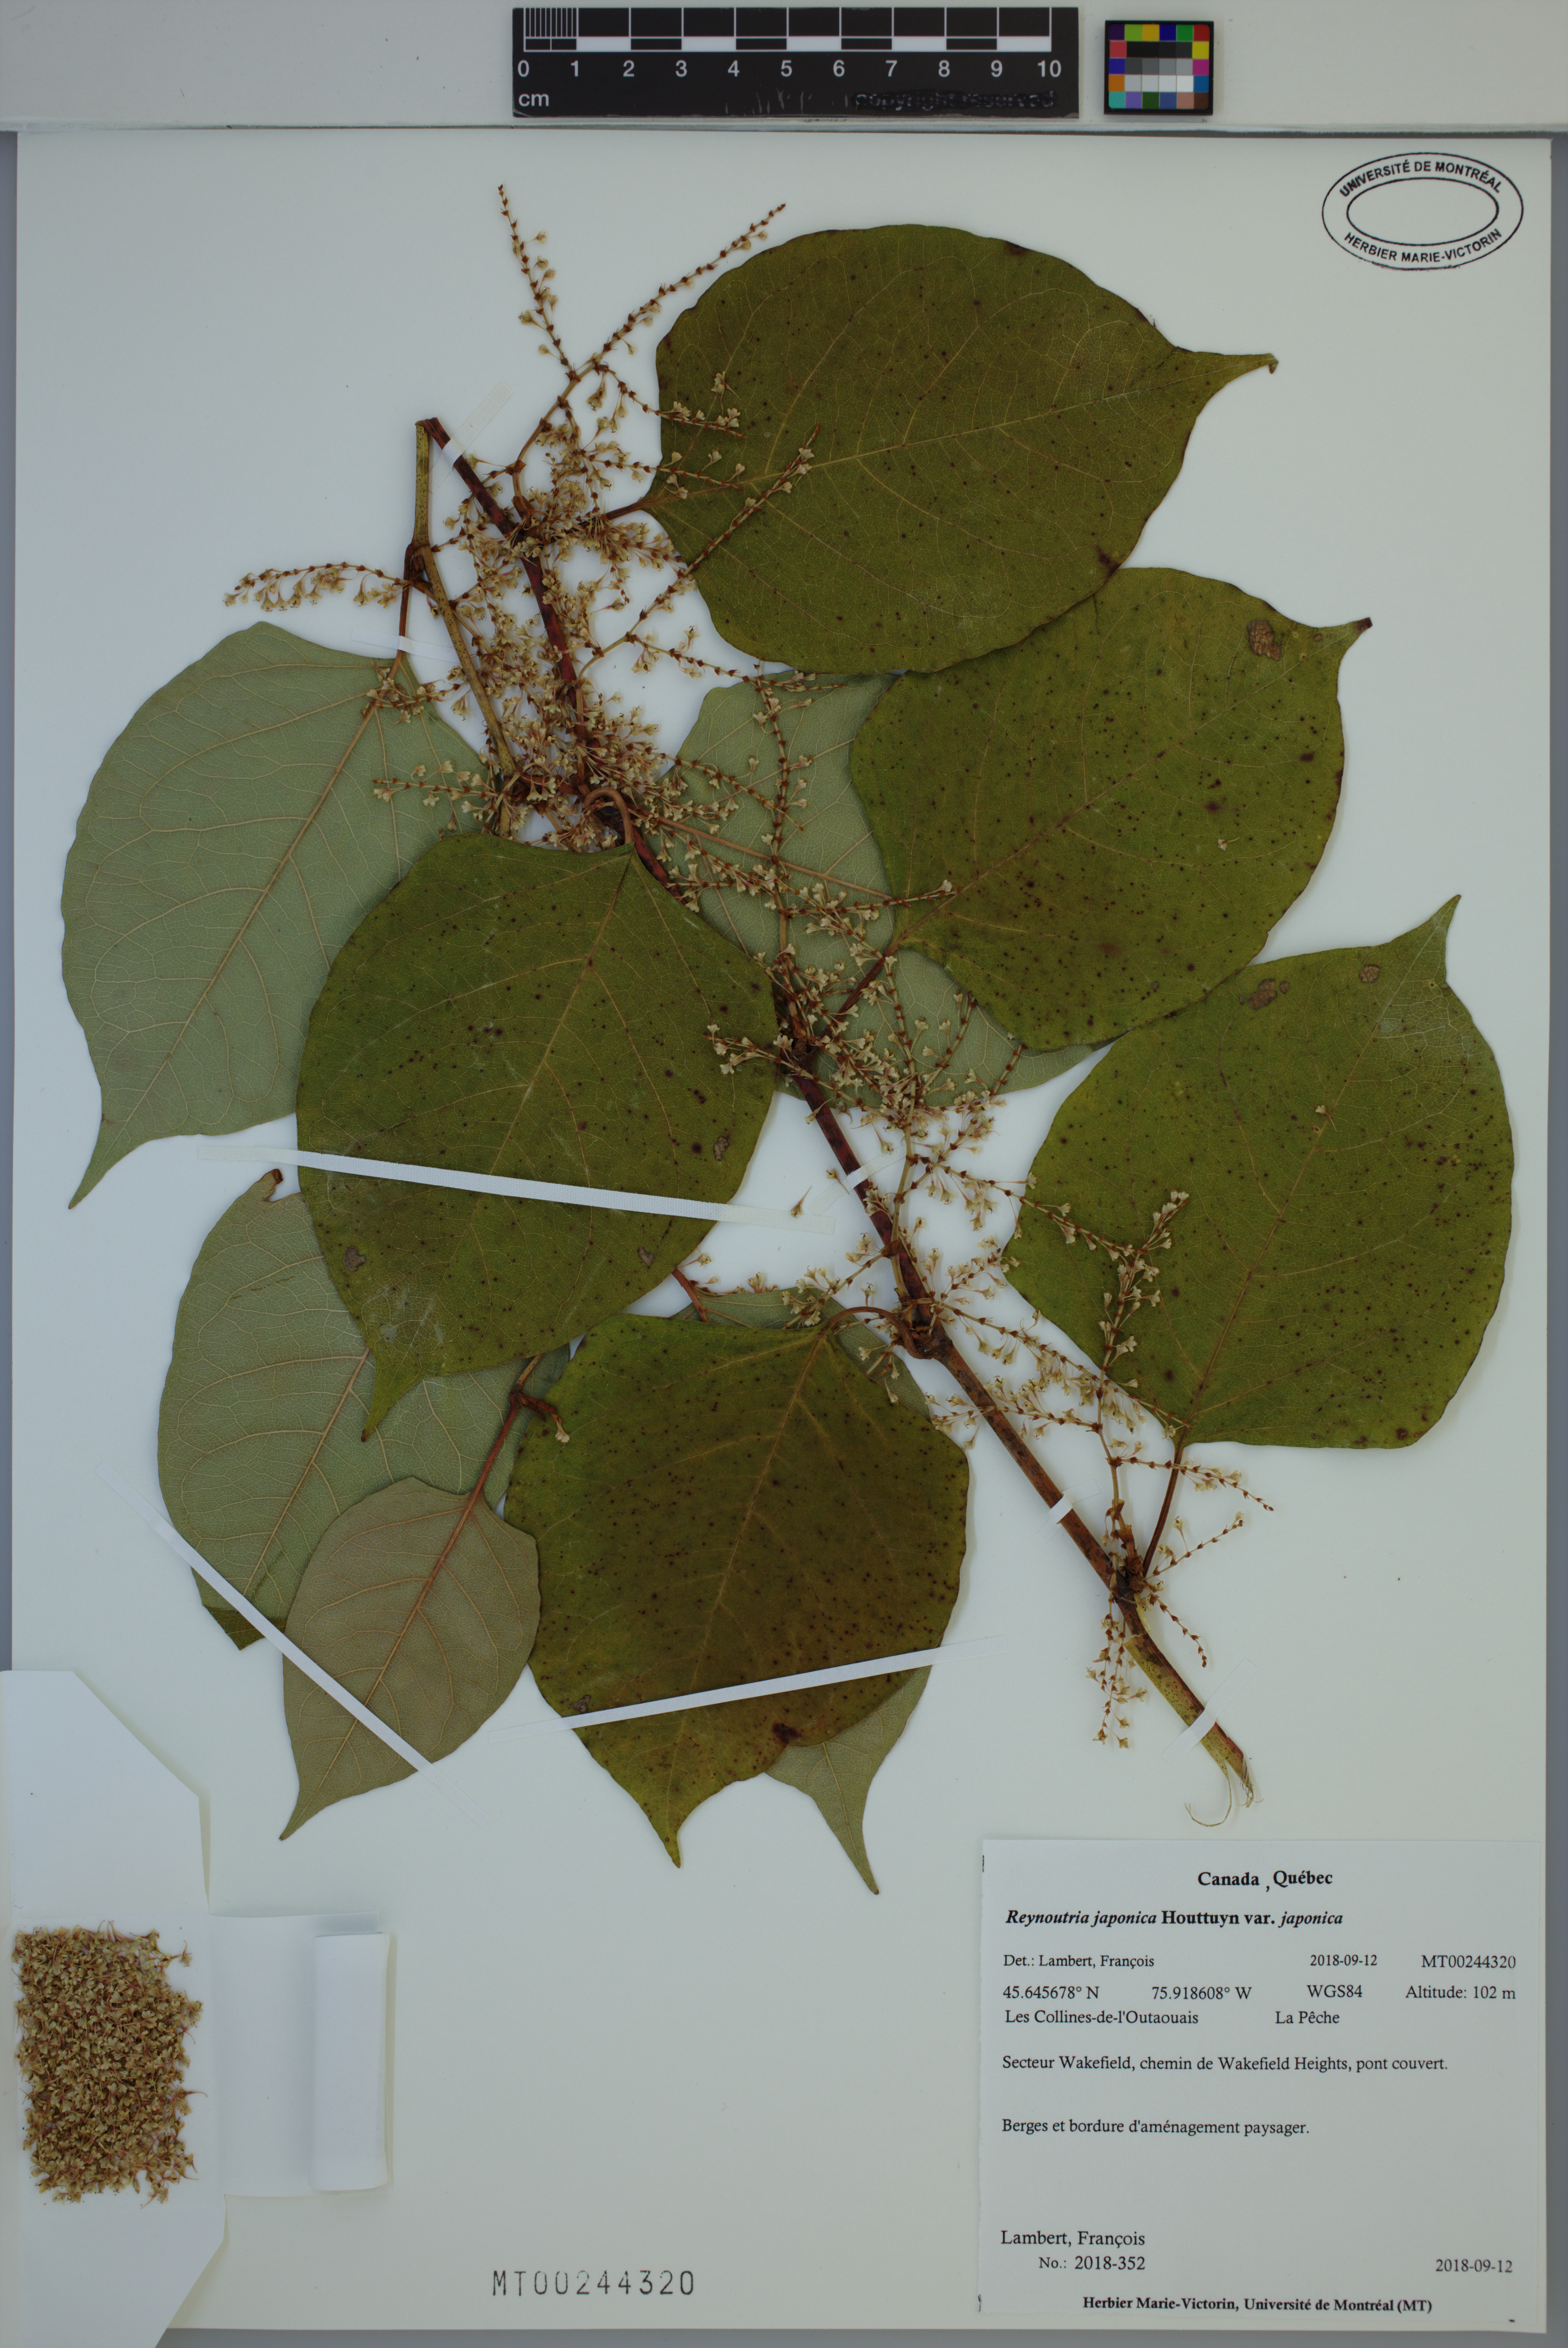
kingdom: Plantae
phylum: Tracheophyta
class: Magnoliopsida
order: Caryophyllales
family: Polygonaceae
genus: Reynoutria
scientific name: Reynoutria japonica
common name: Japanese knotweed
